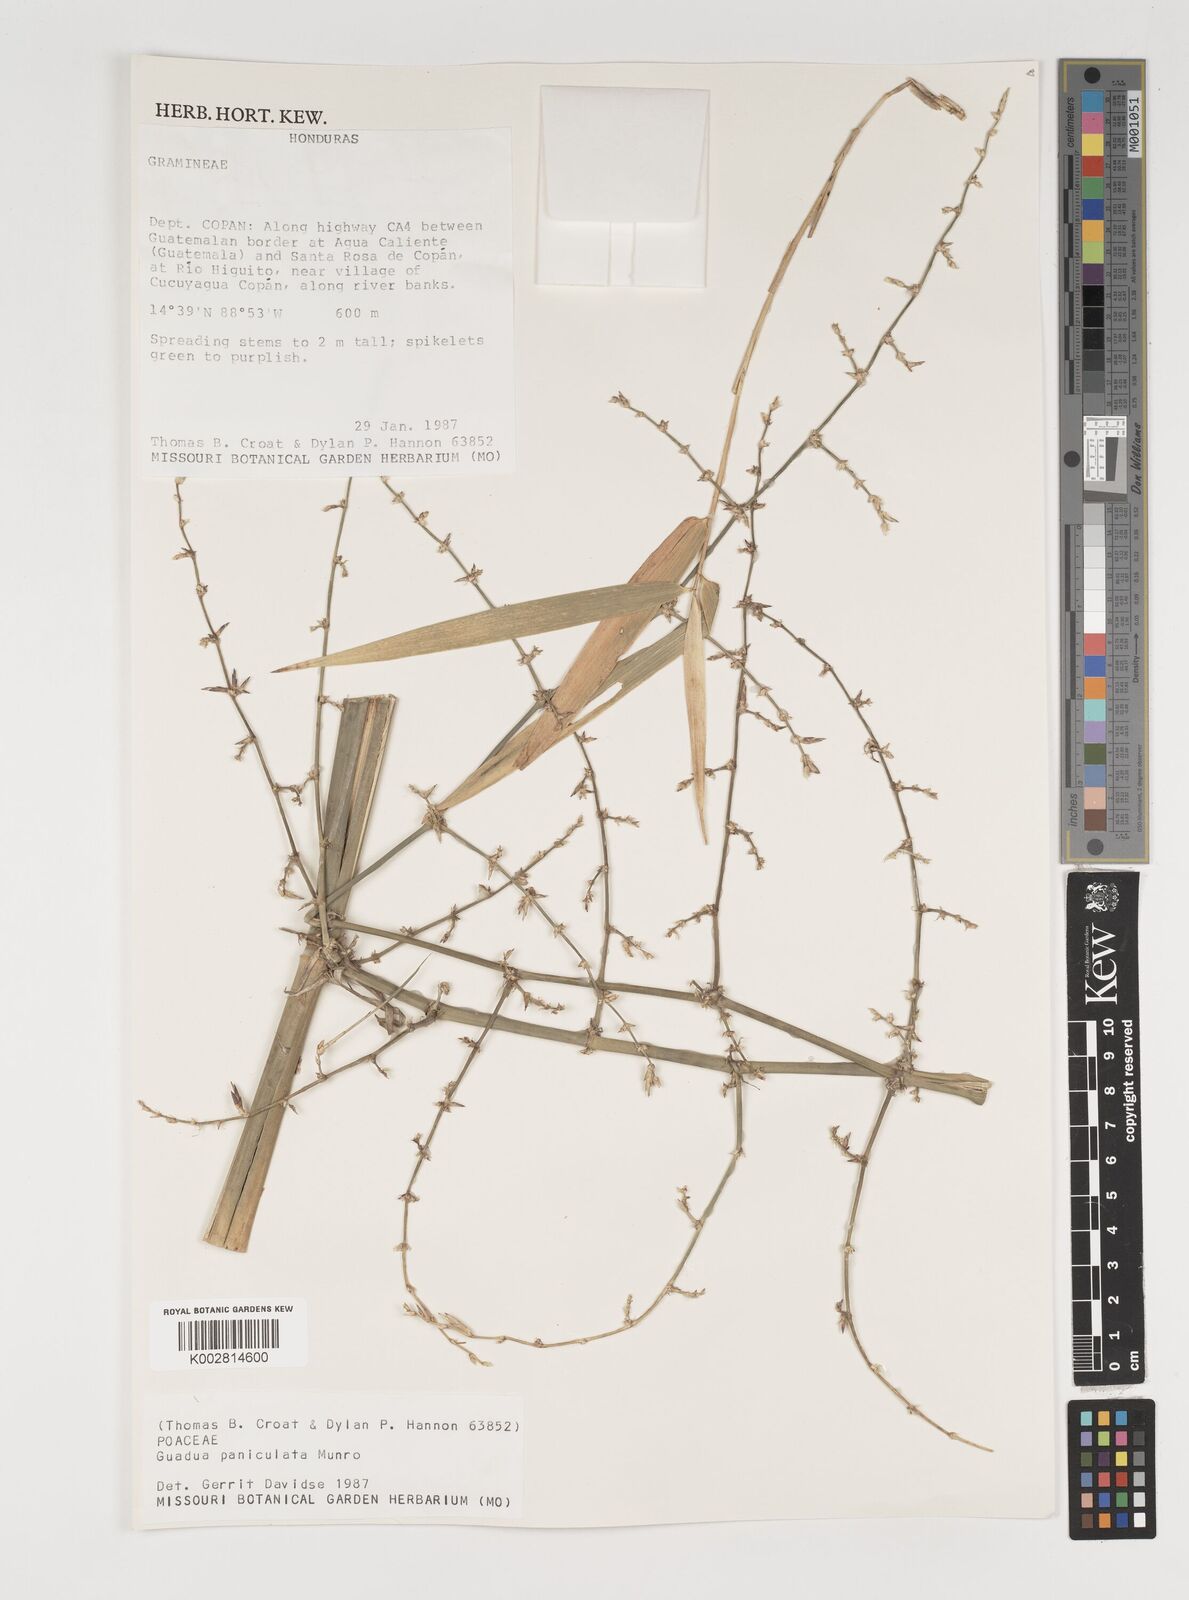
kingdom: Plantae
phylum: Tracheophyta
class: Liliopsida
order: Poales
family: Poaceae
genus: Guadua
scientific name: Guadua paniculata
